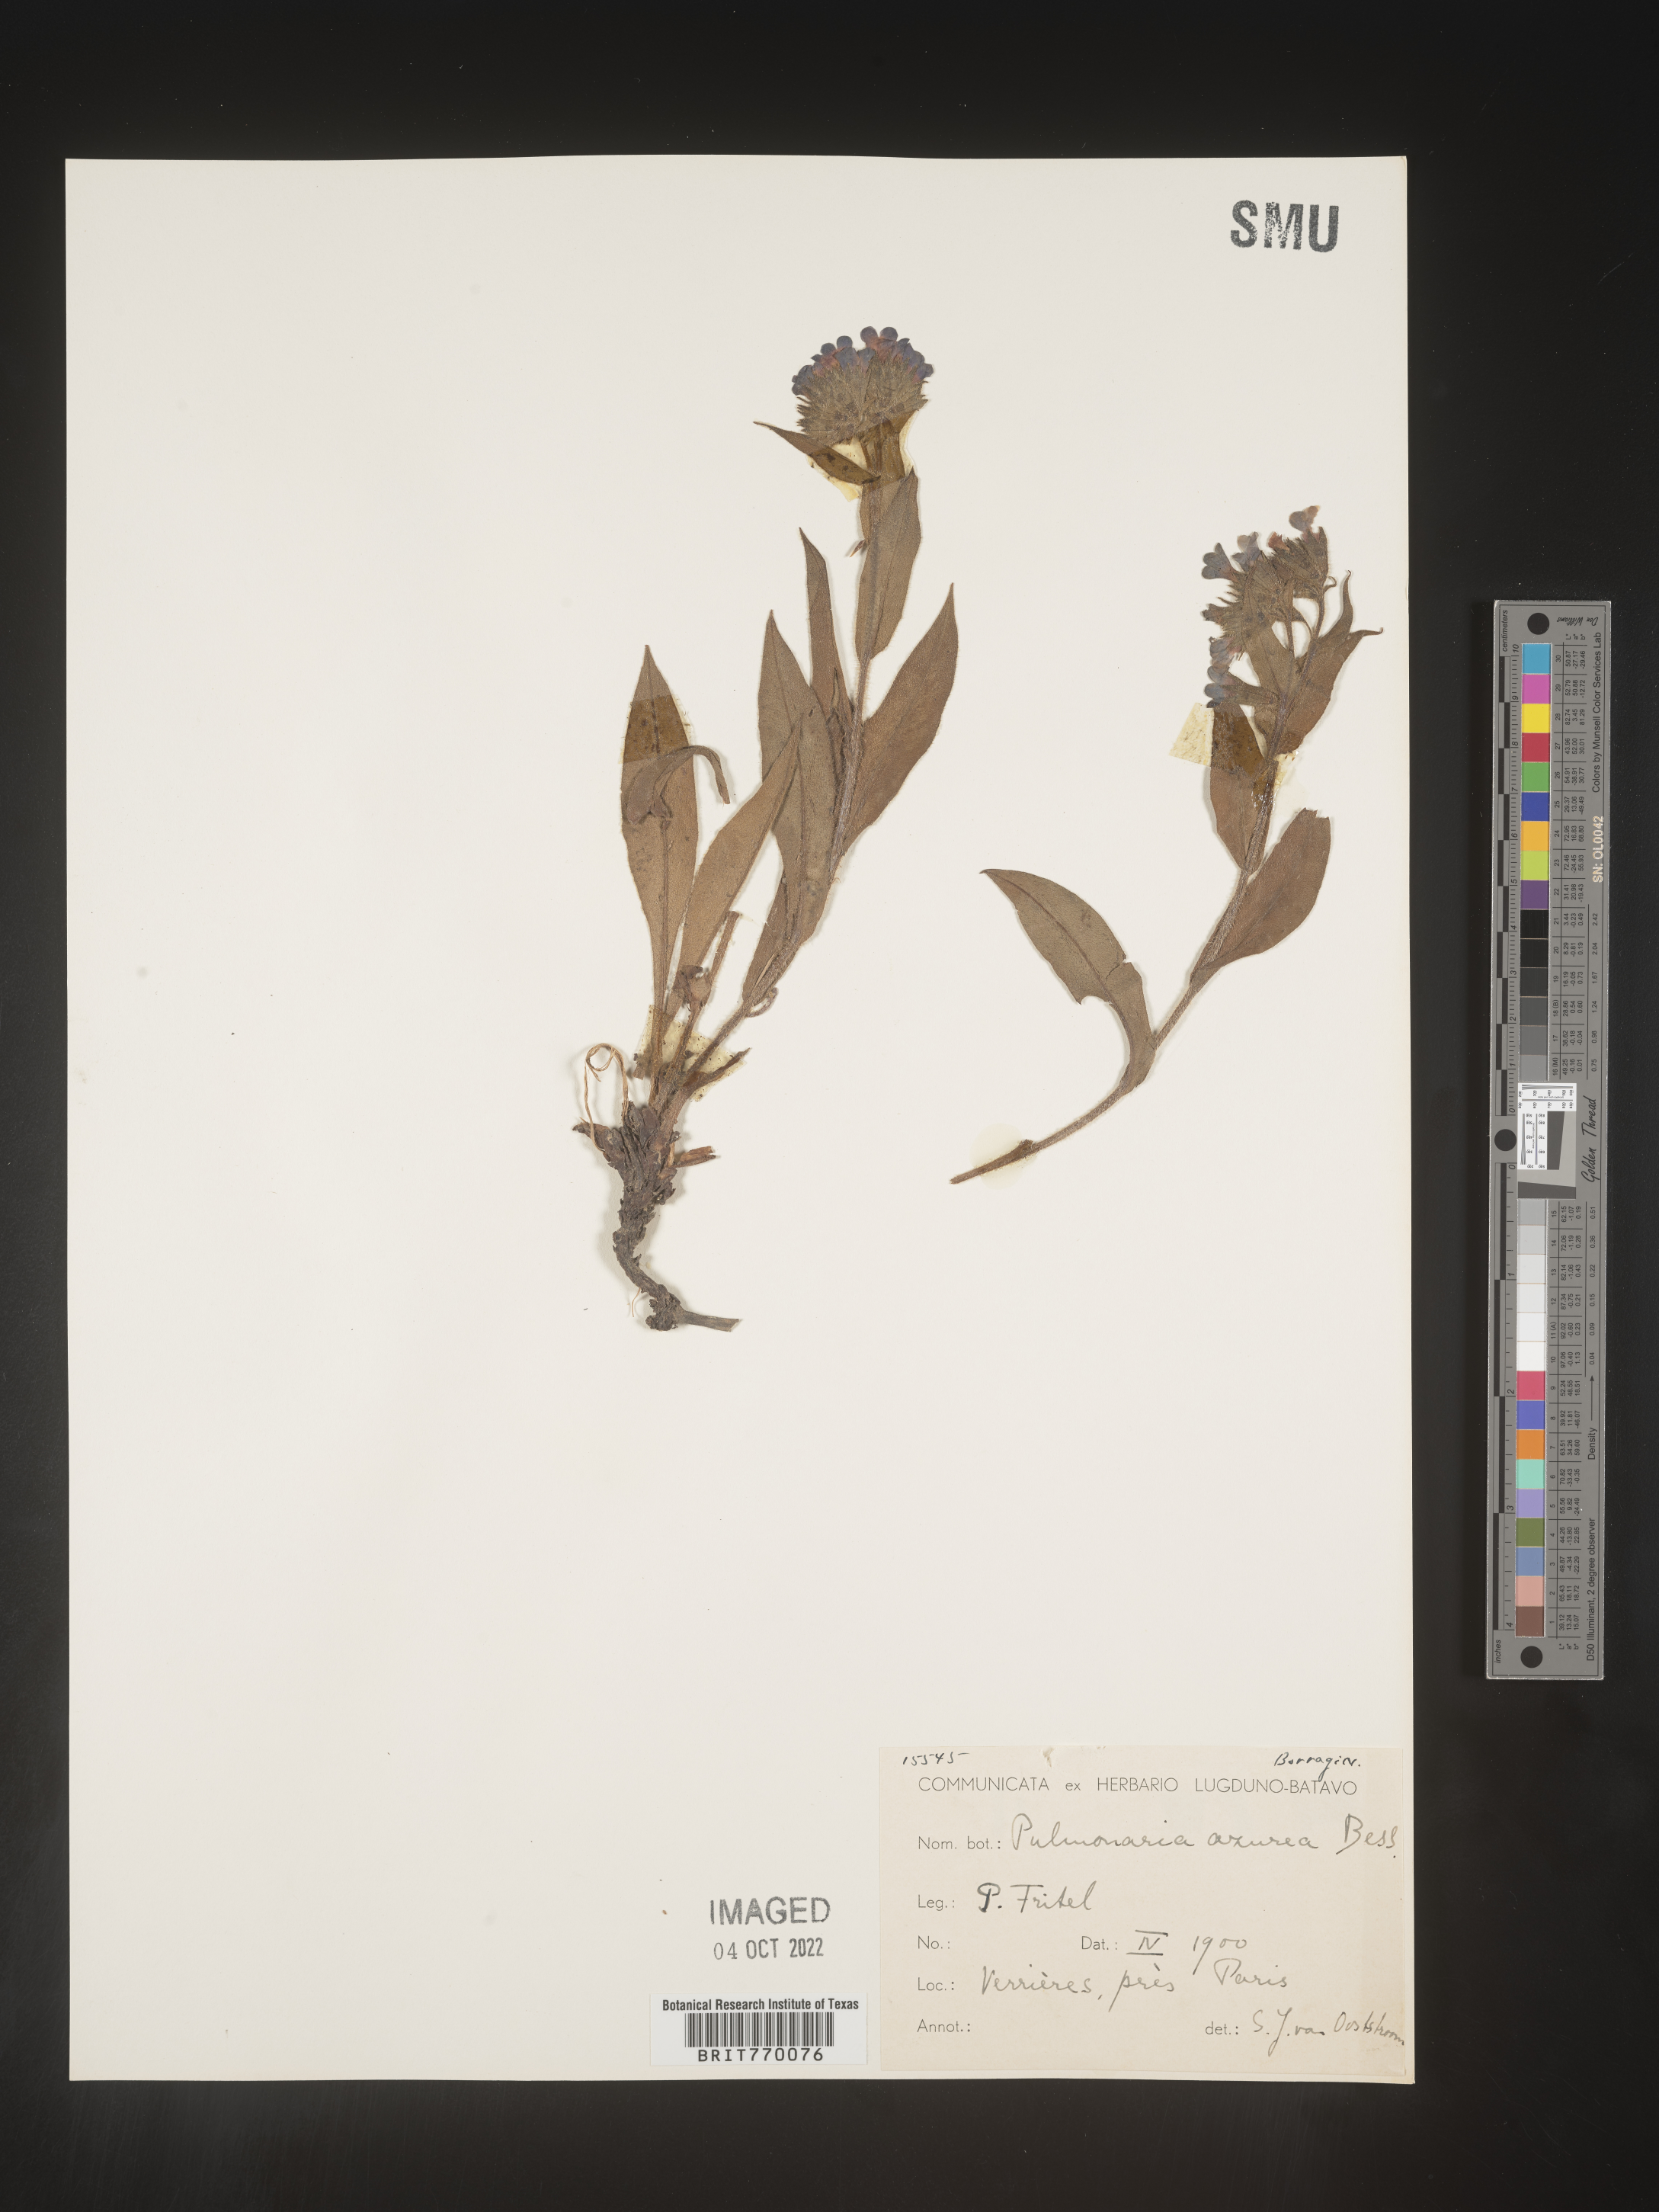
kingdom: Plantae
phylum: Tracheophyta
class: Magnoliopsida
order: Boraginales
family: Boraginaceae
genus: Pulmonaria
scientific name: Pulmonaria
